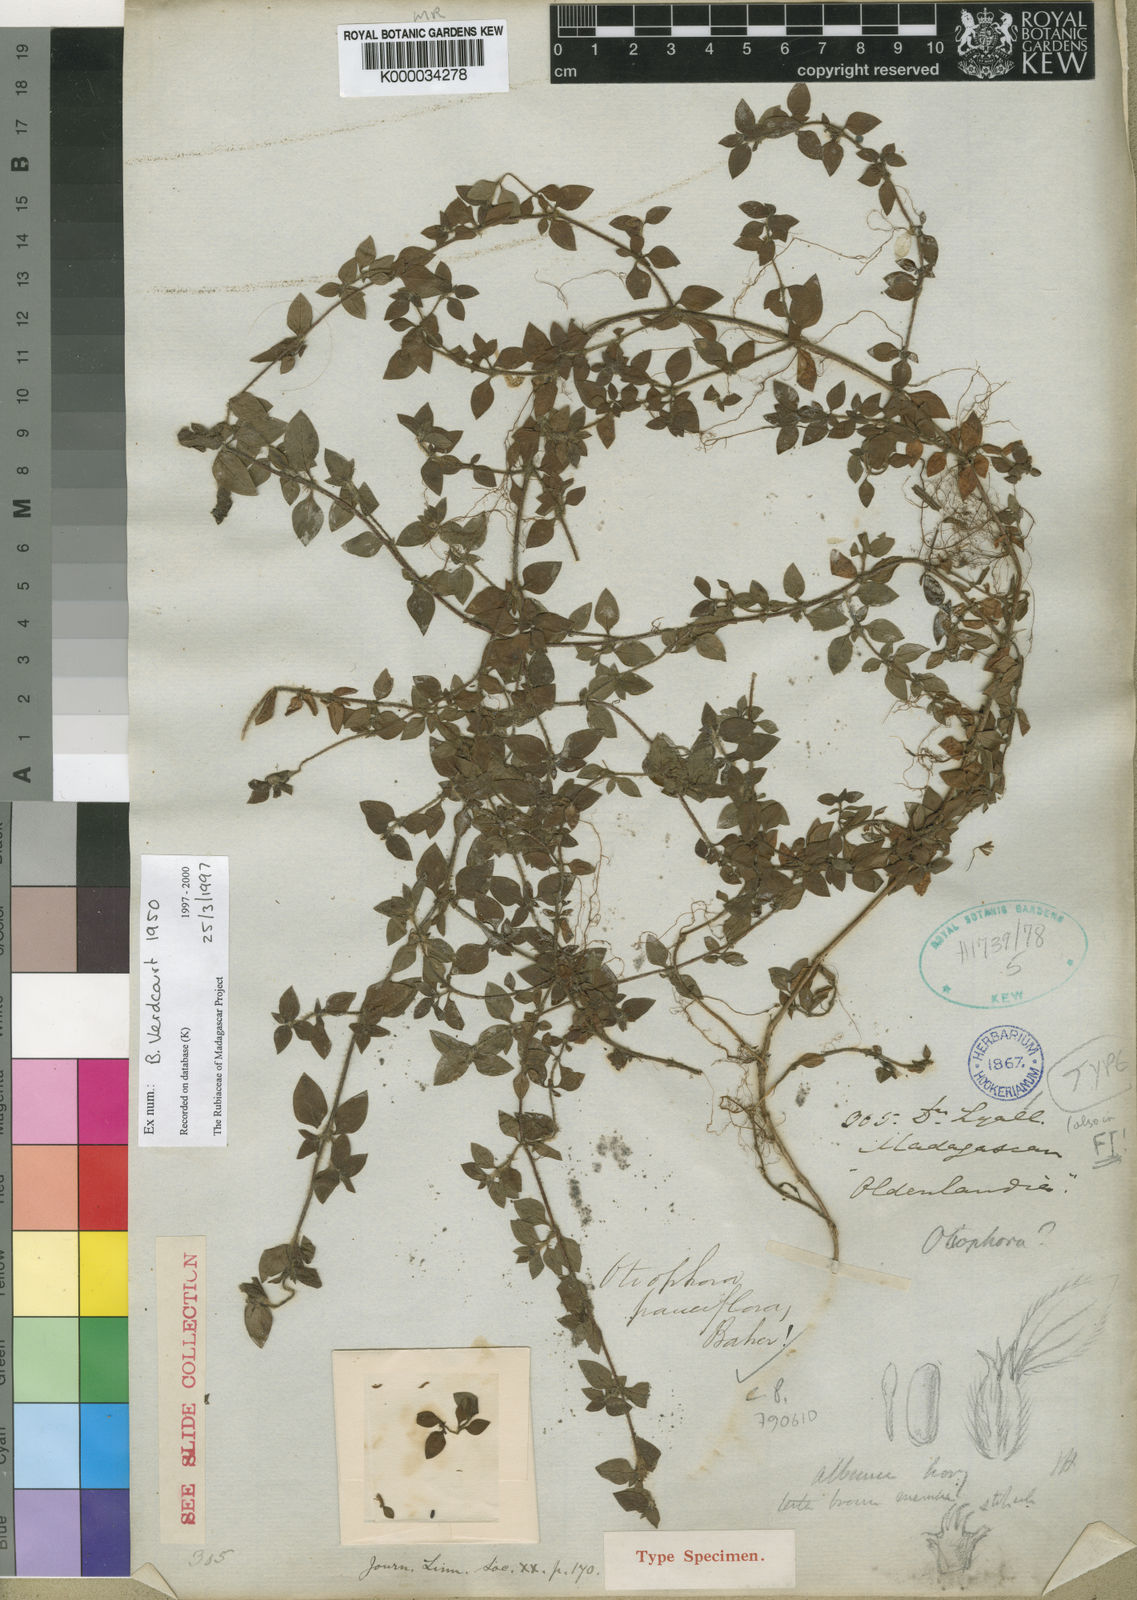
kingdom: Plantae
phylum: Tracheophyta
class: Magnoliopsida
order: Gentianales
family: Rubiaceae
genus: Otiophora
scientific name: Otiophora pauciflora
